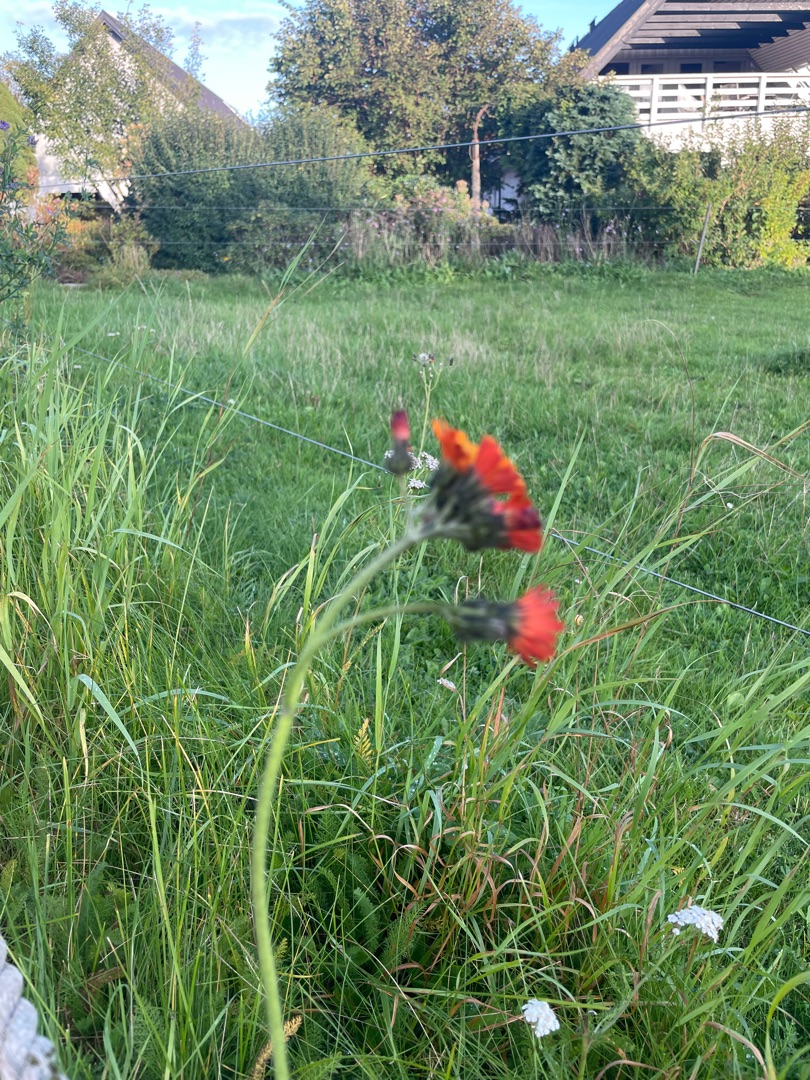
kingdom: Plantae
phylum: Tracheophyta
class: Magnoliopsida
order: Asterales
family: Asteraceae
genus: Pilosella
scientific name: Pilosella aurantiaca
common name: Pomerans-høgeurt
